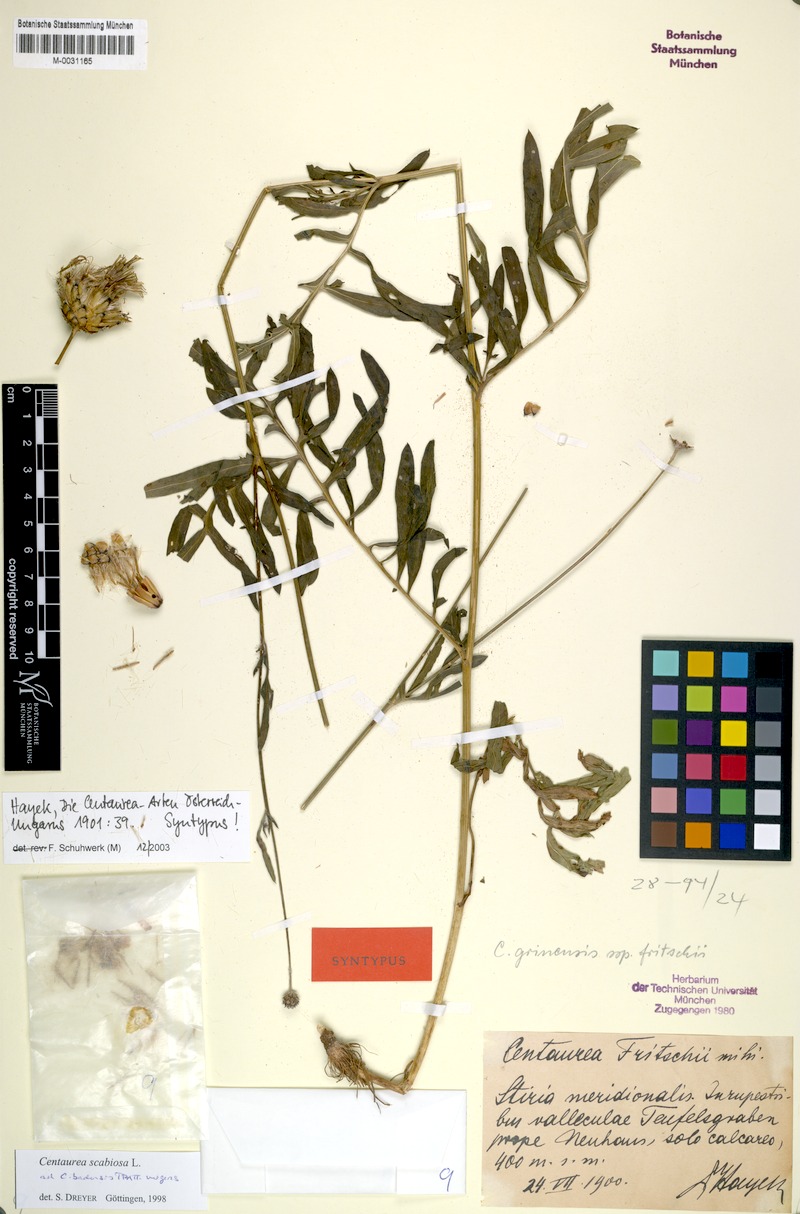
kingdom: Plantae
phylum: Tracheophyta
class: Magnoliopsida
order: Asterales
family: Asteraceae
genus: Centaurea
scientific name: Centaurea scabiosa
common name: Greater knapweed
